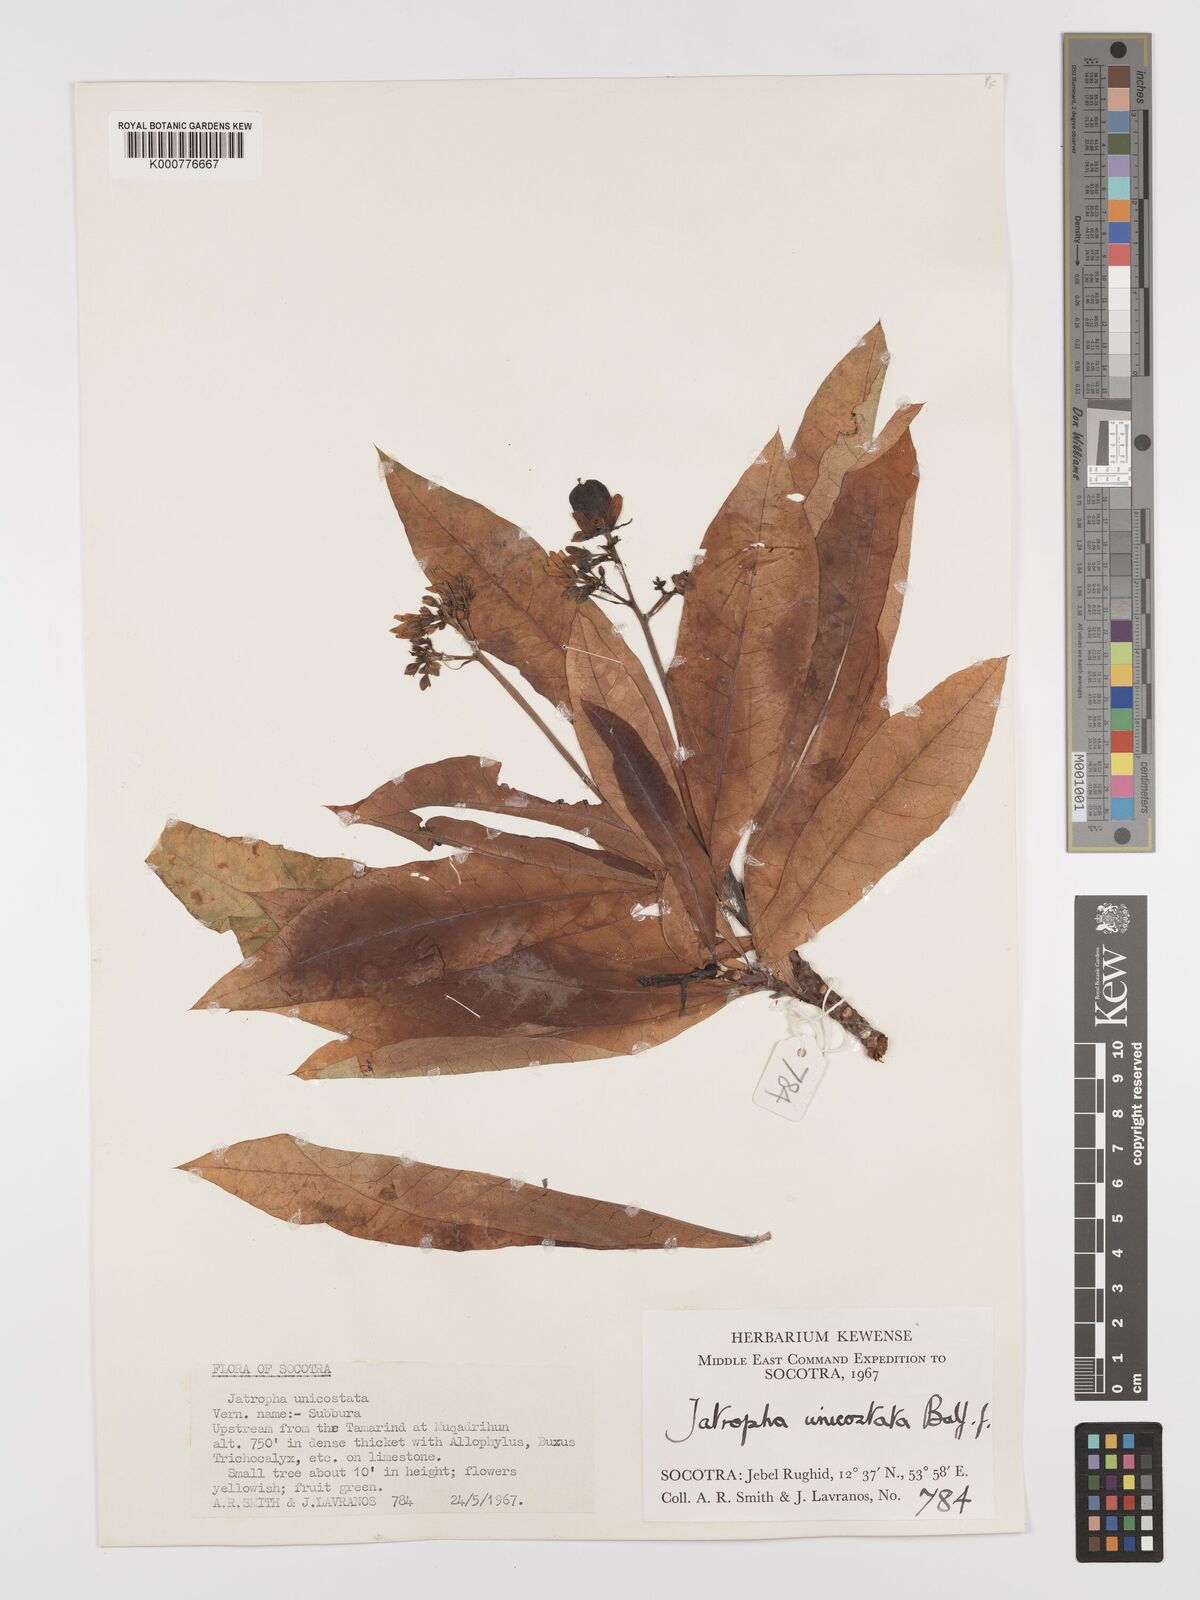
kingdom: Plantae
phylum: Tracheophyta
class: Magnoliopsida
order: Malpighiales
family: Euphorbiaceae
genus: Jatropha
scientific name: Jatropha unicostata
